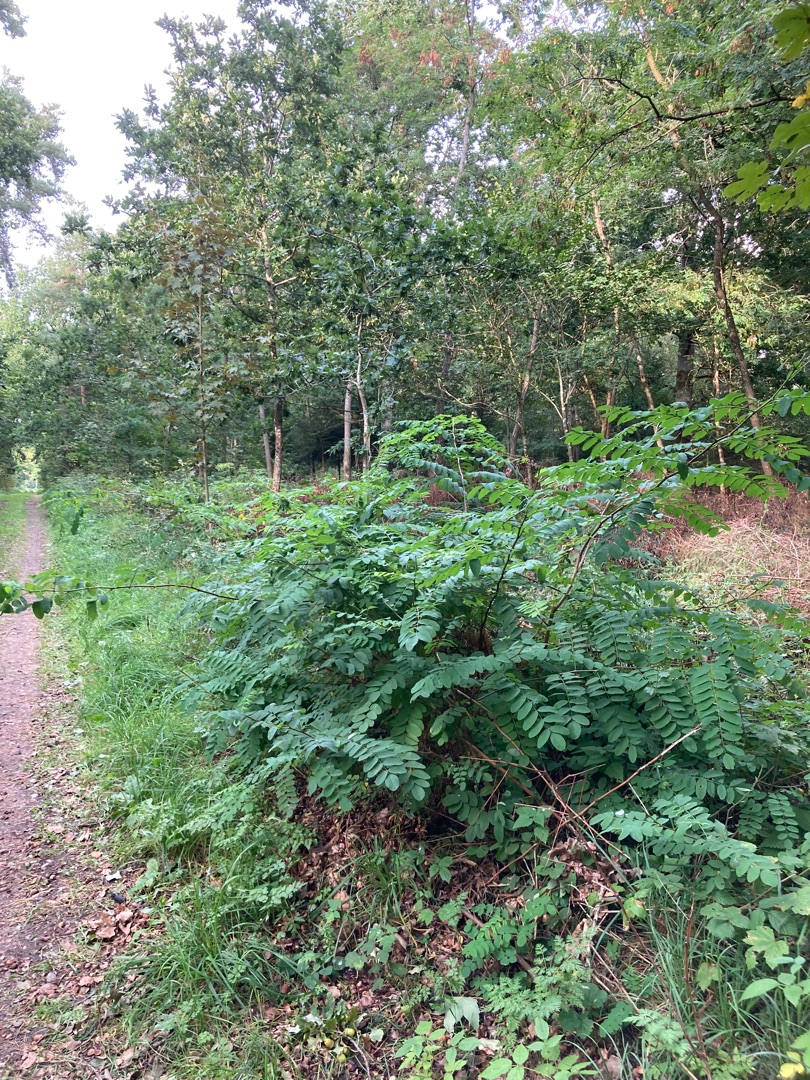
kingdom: Plantae
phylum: Tracheophyta
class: Magnoliopsida
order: Fabales
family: Fabaceae
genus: Robinia
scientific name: Robinia pseudoacacia
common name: Robinie
